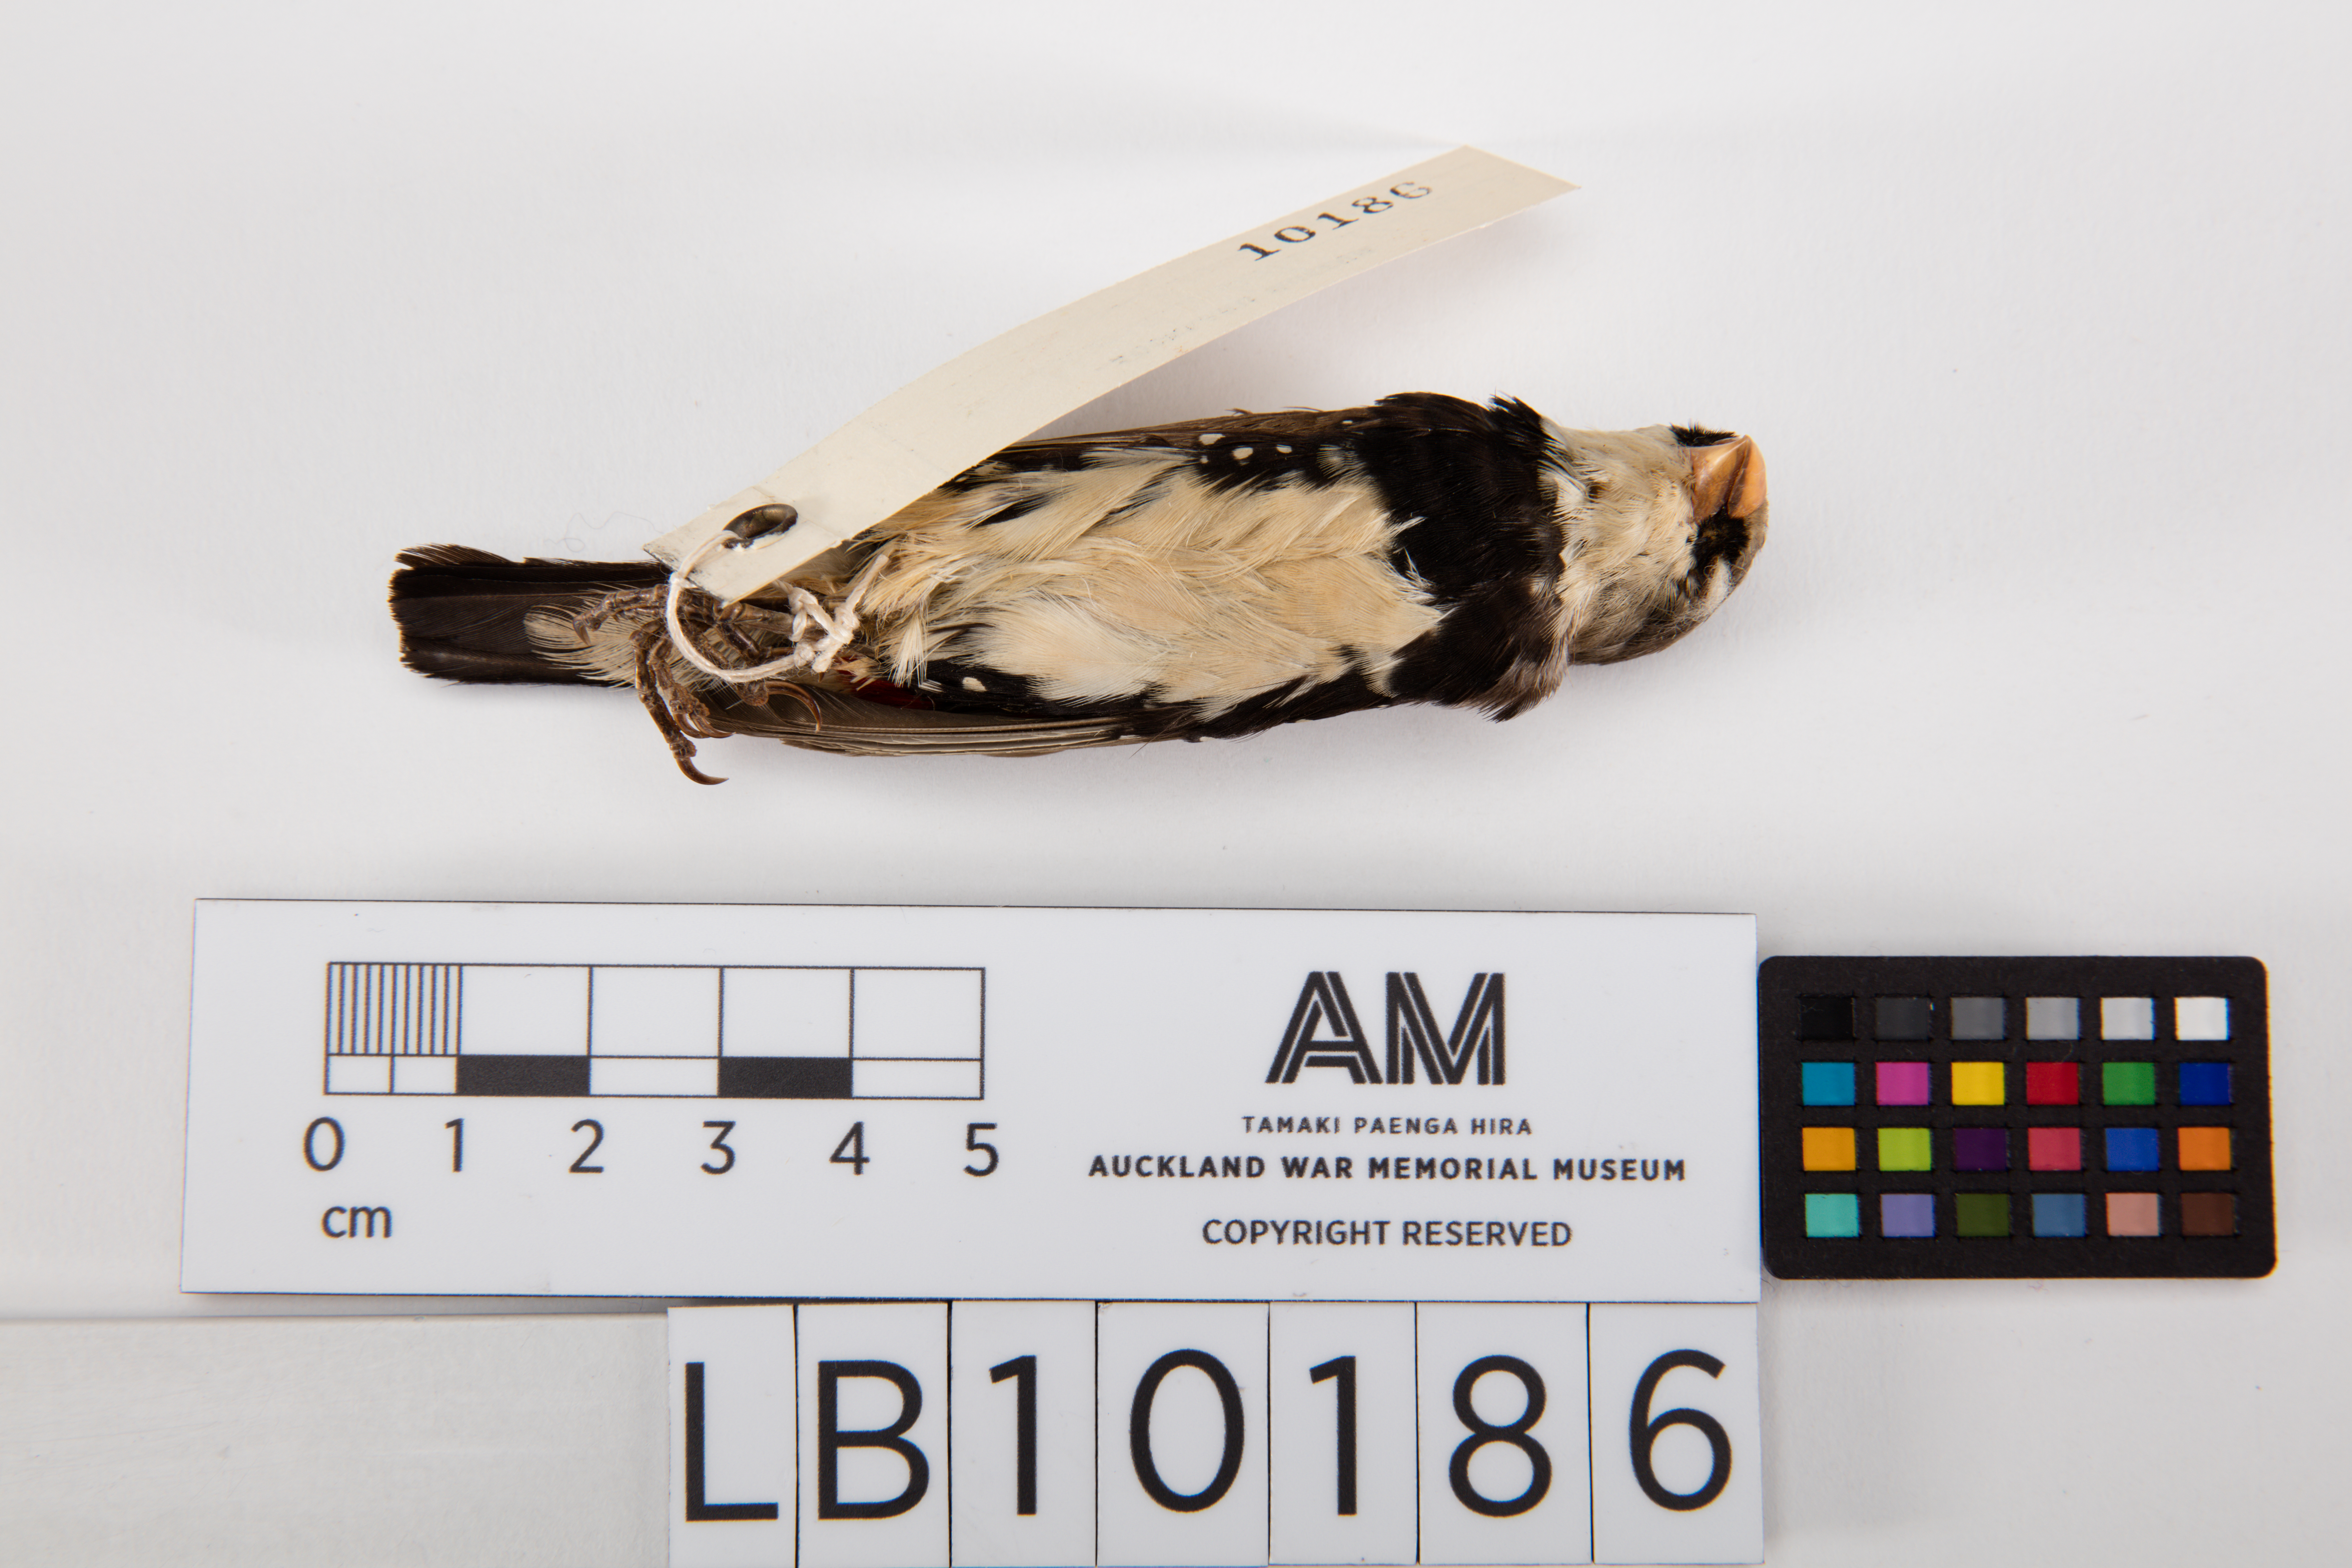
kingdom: Animalia
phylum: Chordata
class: Aves
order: Passeriformes
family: Estrildidae
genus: Stagonopleura
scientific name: Stagonopleura guttata
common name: Diamond firetail
